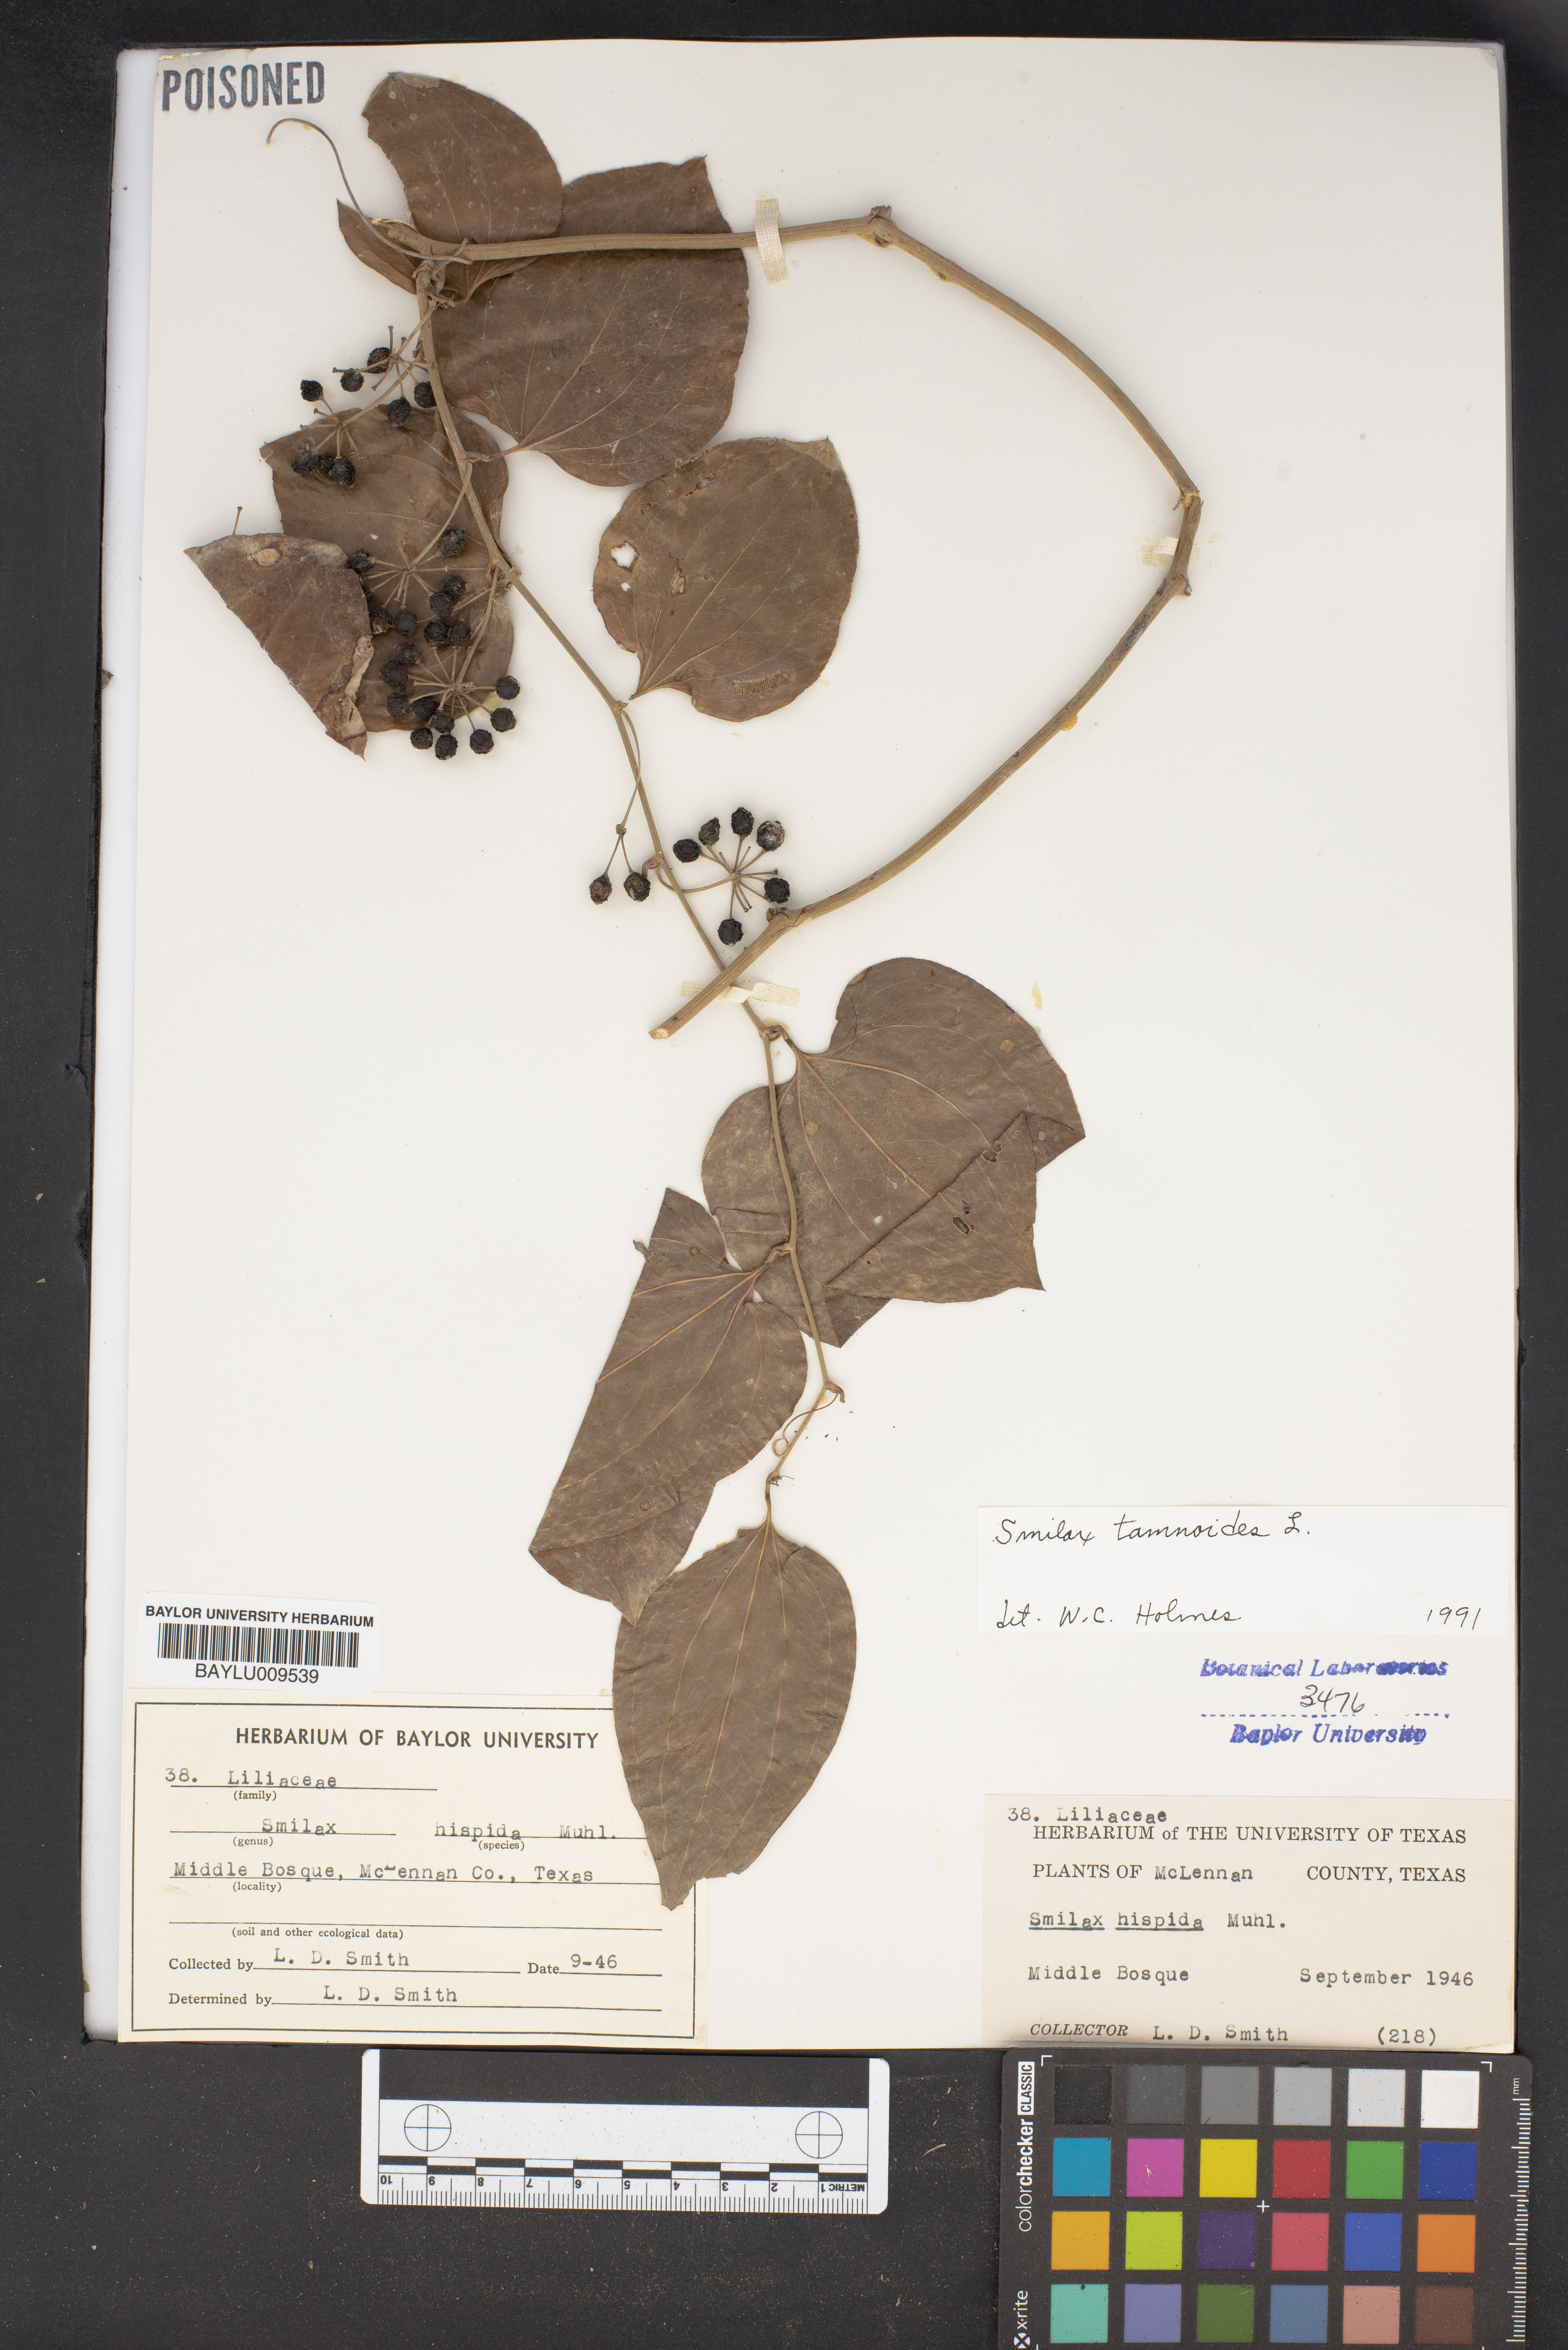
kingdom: Plantae
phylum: Tracheophyta
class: Liliopsida
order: Liliales
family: Smilacaceae
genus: Smilax
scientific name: Smilax tamnoides
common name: Hellfetter
